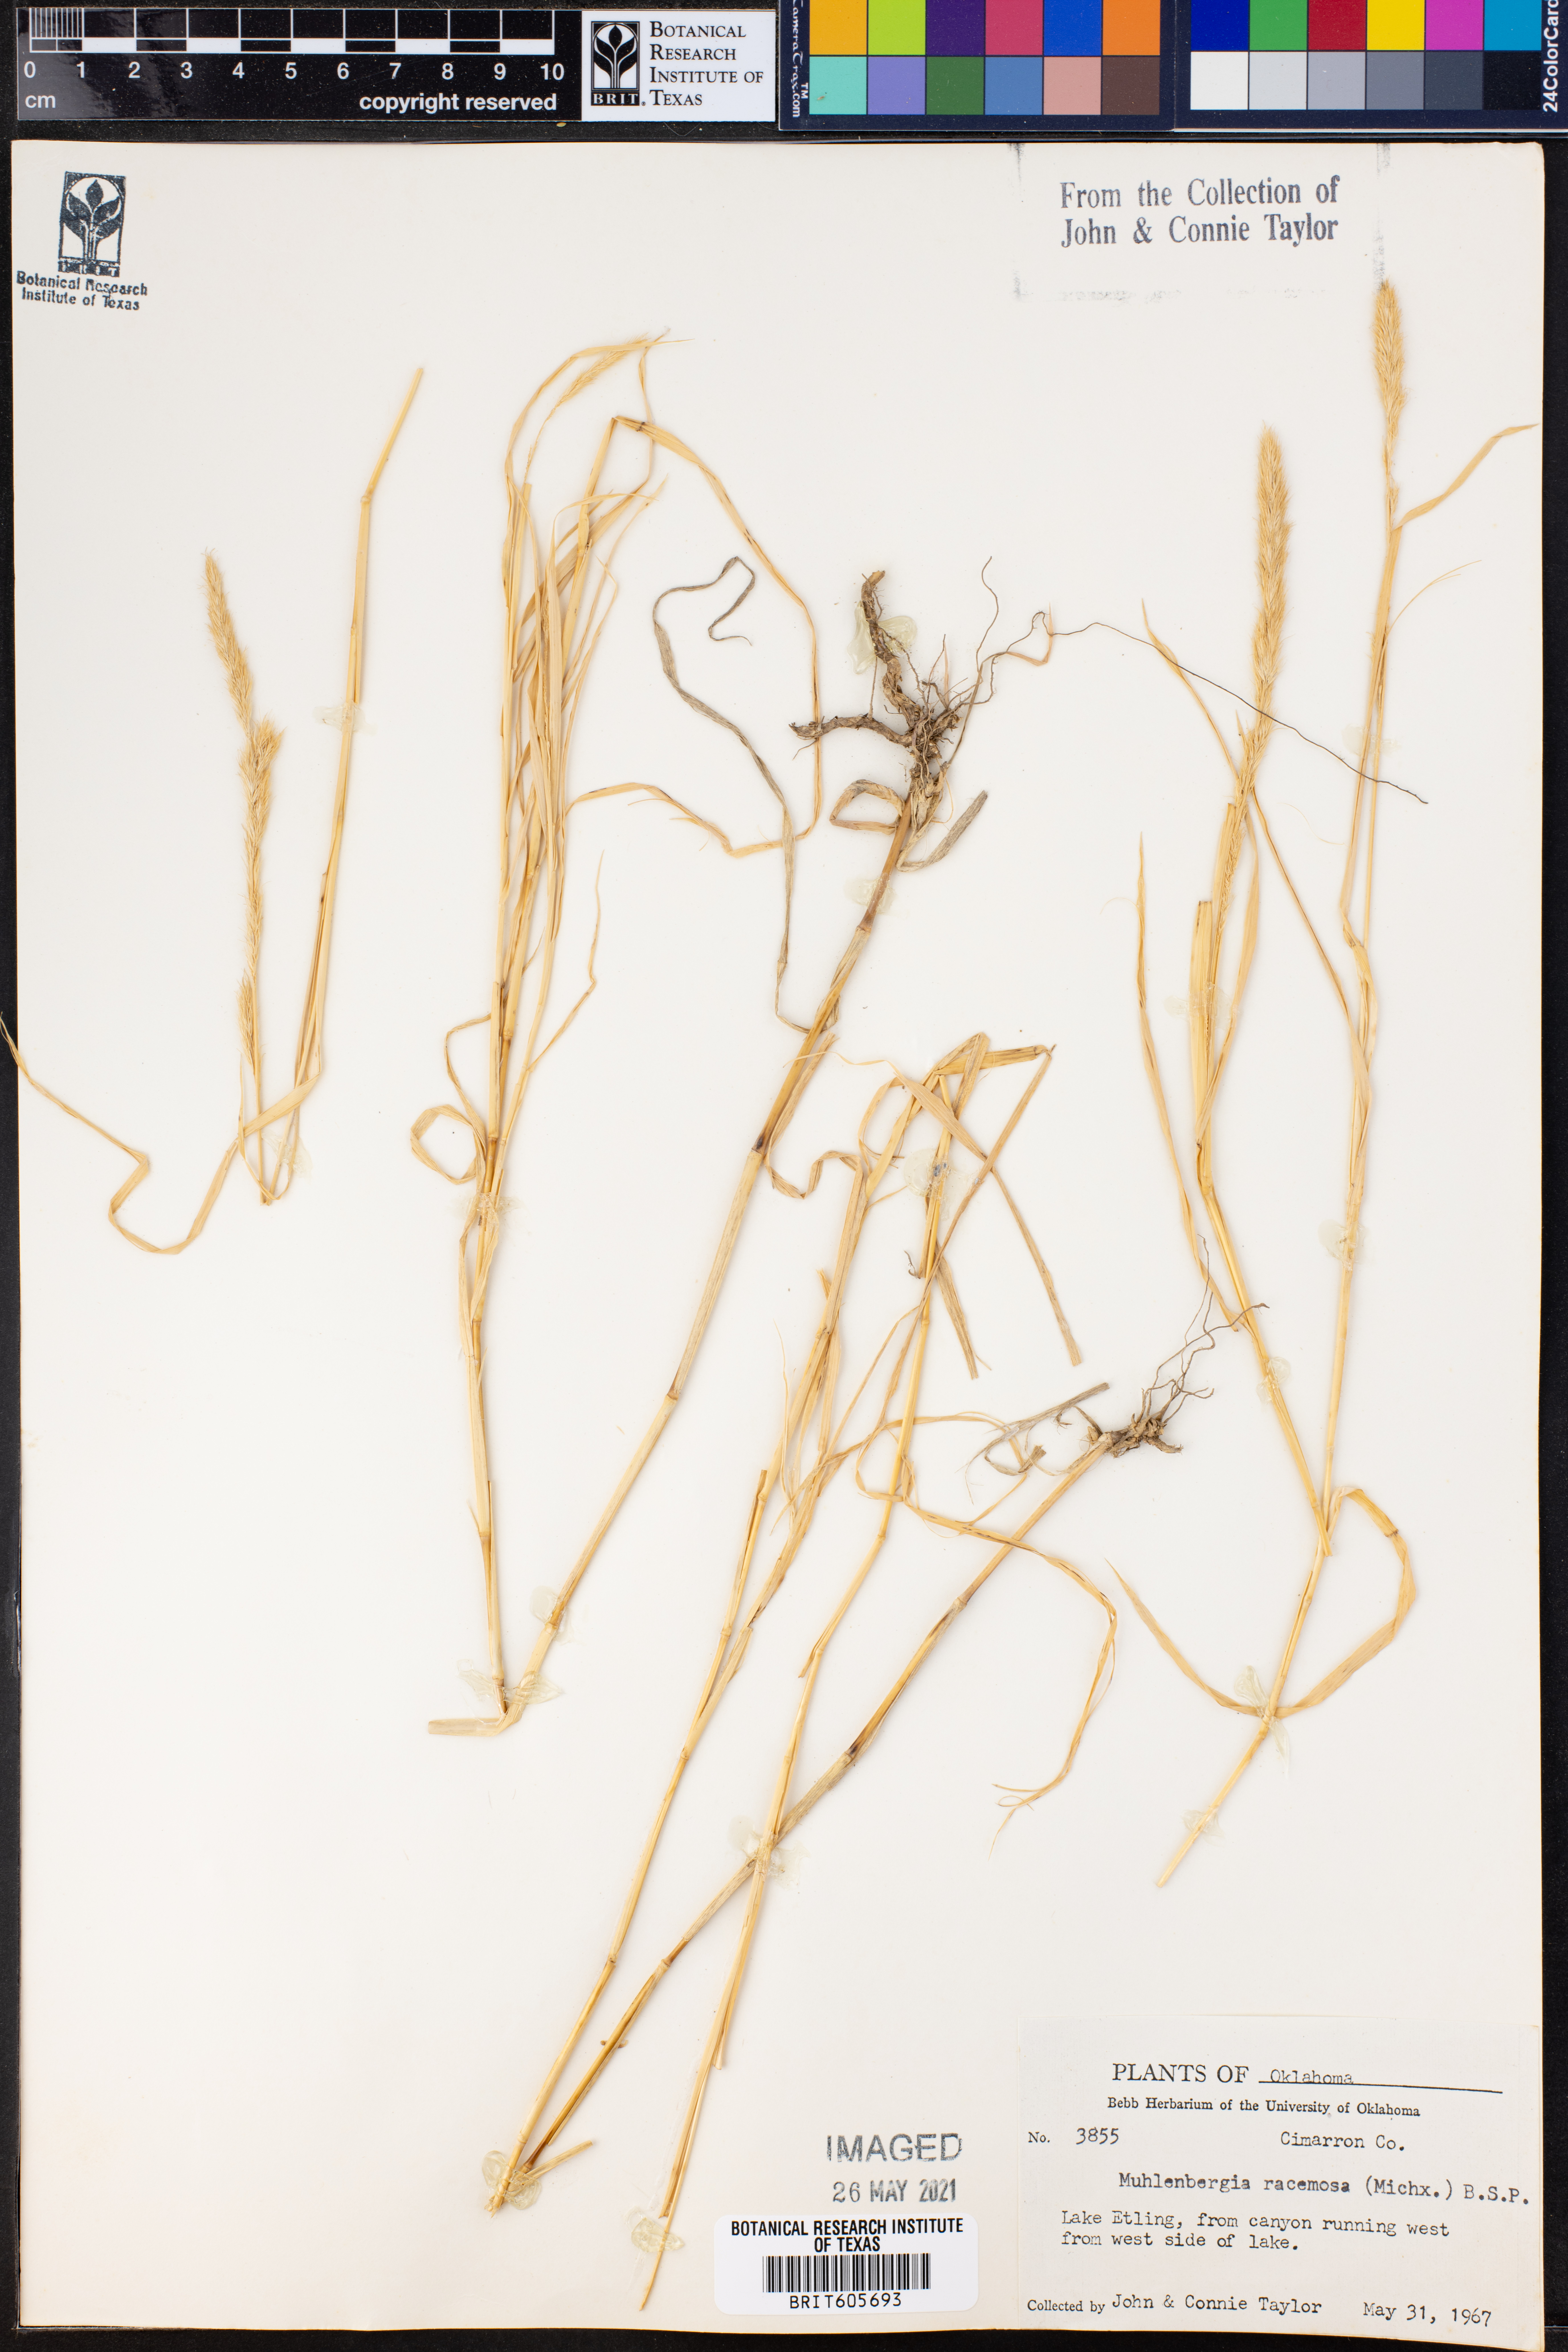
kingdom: Plantae
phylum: Tracheophyta
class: Liliopsida
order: Poales
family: Poaceae
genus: Muhlenbergia
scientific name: Muhlenbergia racemosa
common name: Green muhly
